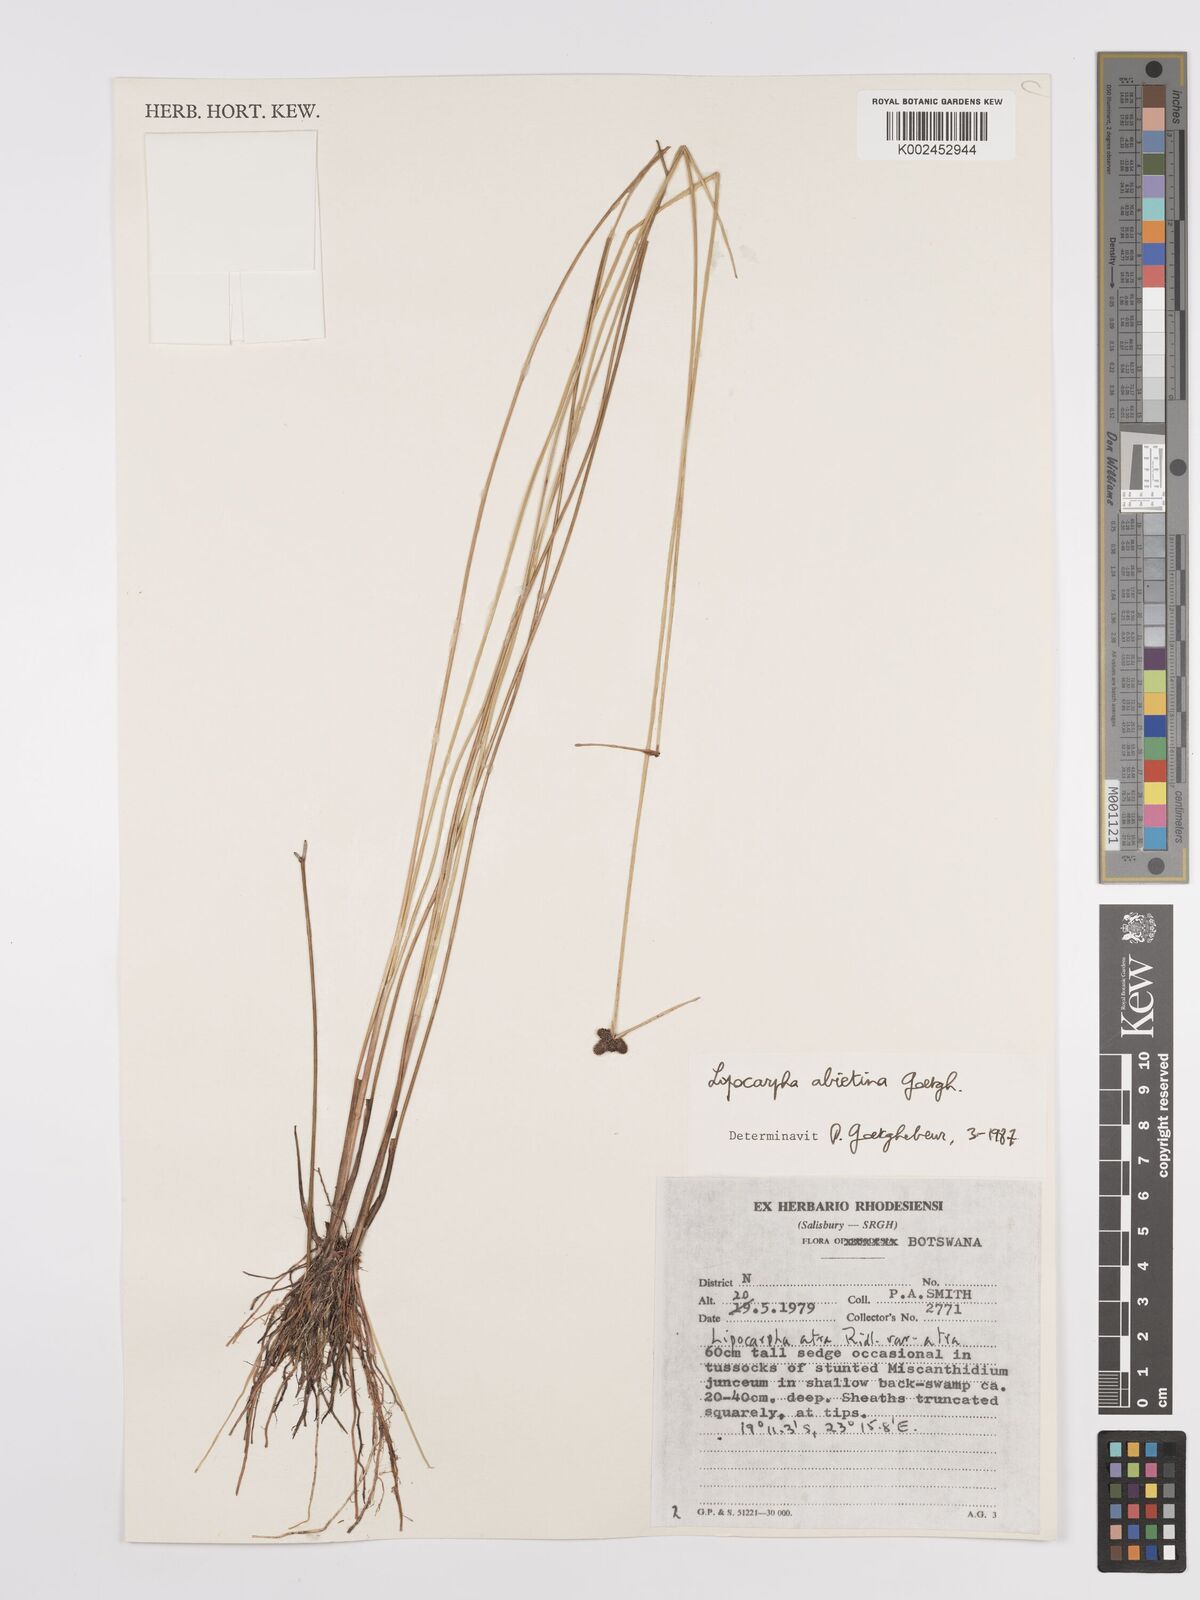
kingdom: Plantae
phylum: Tracheophyta
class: Liliopsida
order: Poales
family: Cyperaceae
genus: Cyperus
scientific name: Cyperus abietinus
